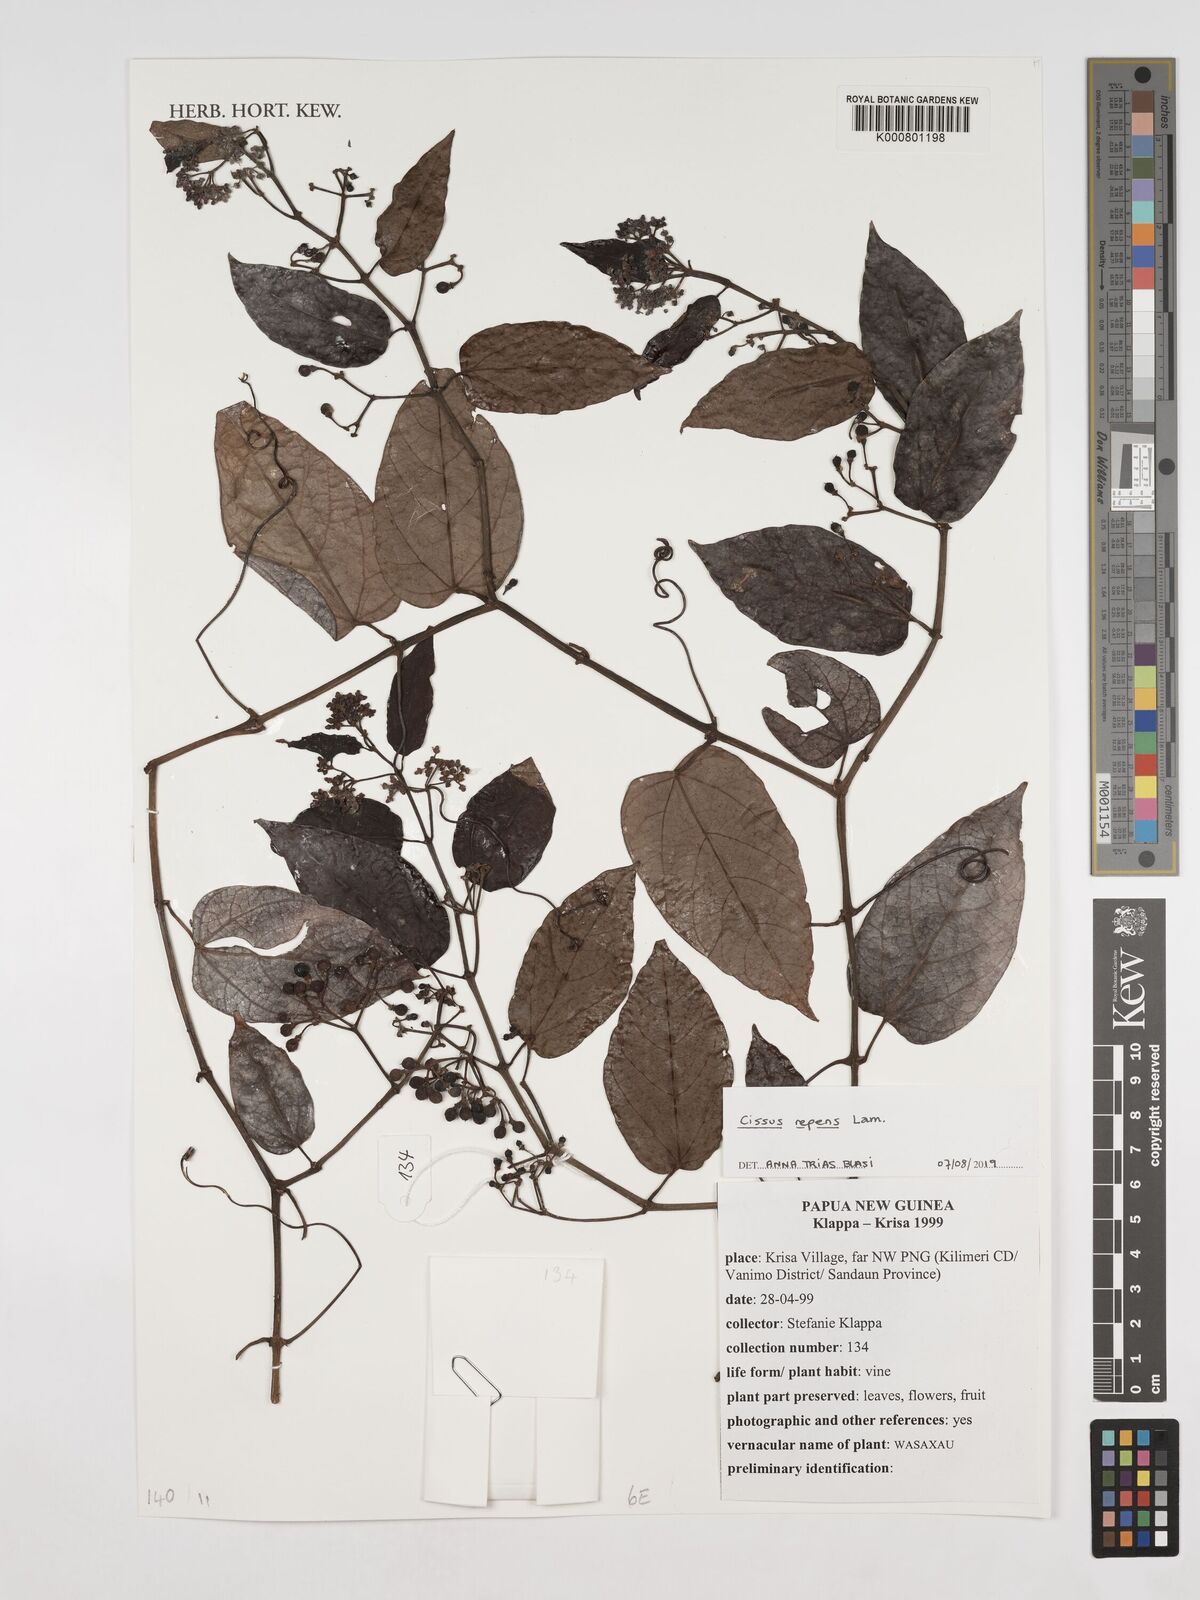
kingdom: Plantae
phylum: Tracheophyta
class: Magnoliopsida
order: Vitales
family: Vitaceae
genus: Cissus
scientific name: Cissus repens
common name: Cissus
